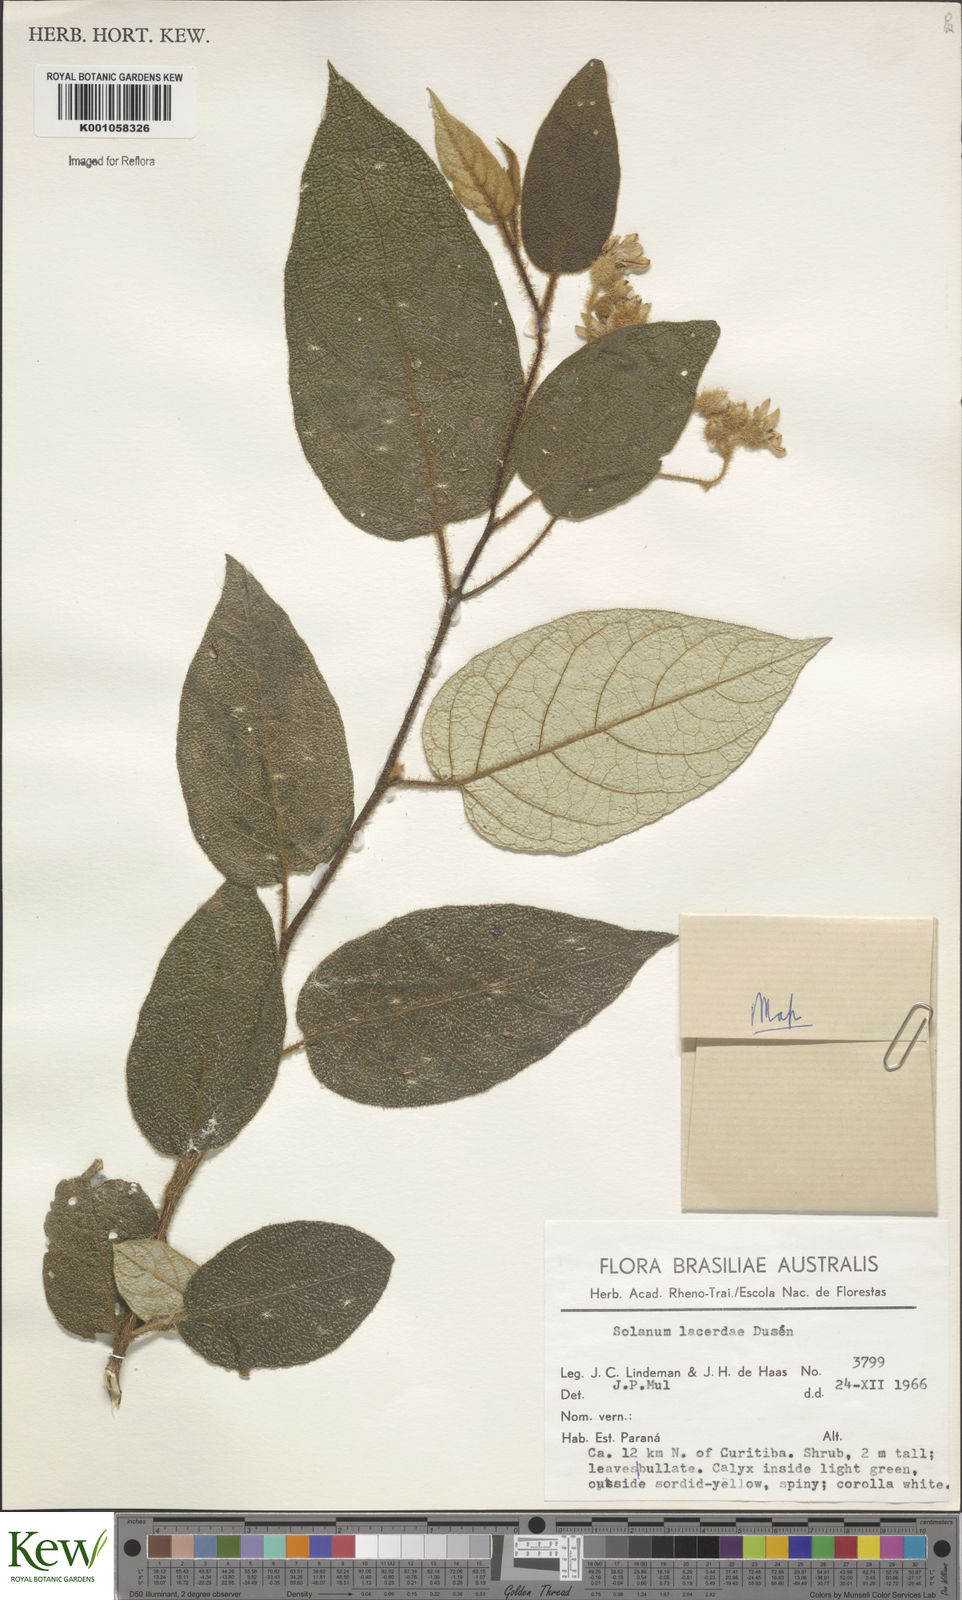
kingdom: Plantae
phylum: Tracheophyta
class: Magnoliopsida
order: Solanales
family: Solanaceae
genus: Solanum
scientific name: Solanum
